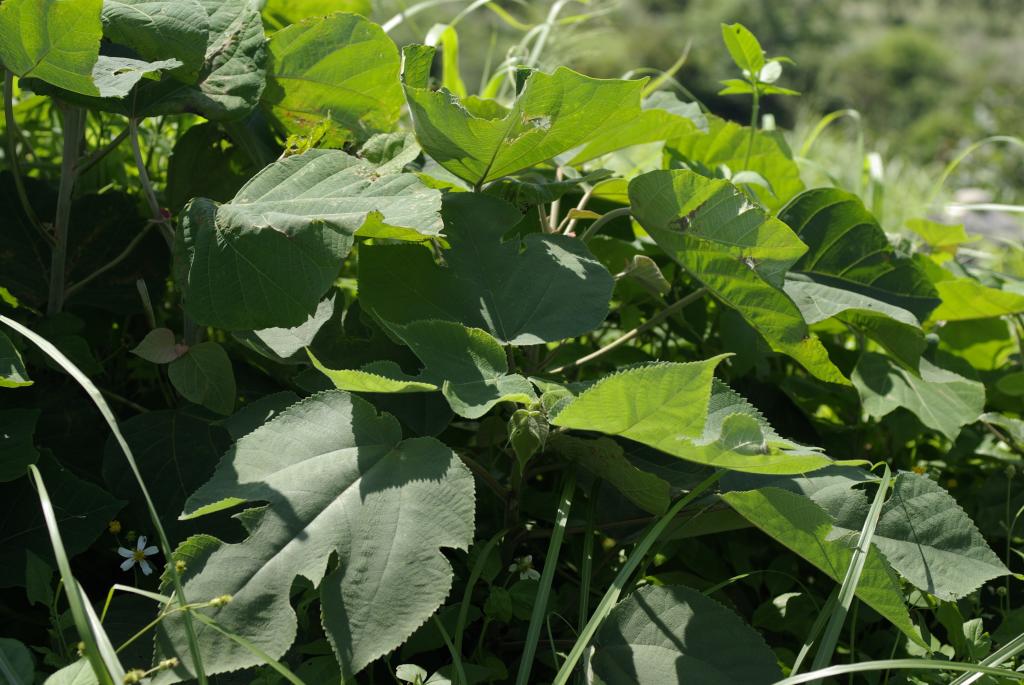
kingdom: Plantae
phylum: Tracheophyta
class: Magnoliopsida
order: Rosales
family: Moraceae
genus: Broussonetia
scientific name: Broussonetia papyrifera
